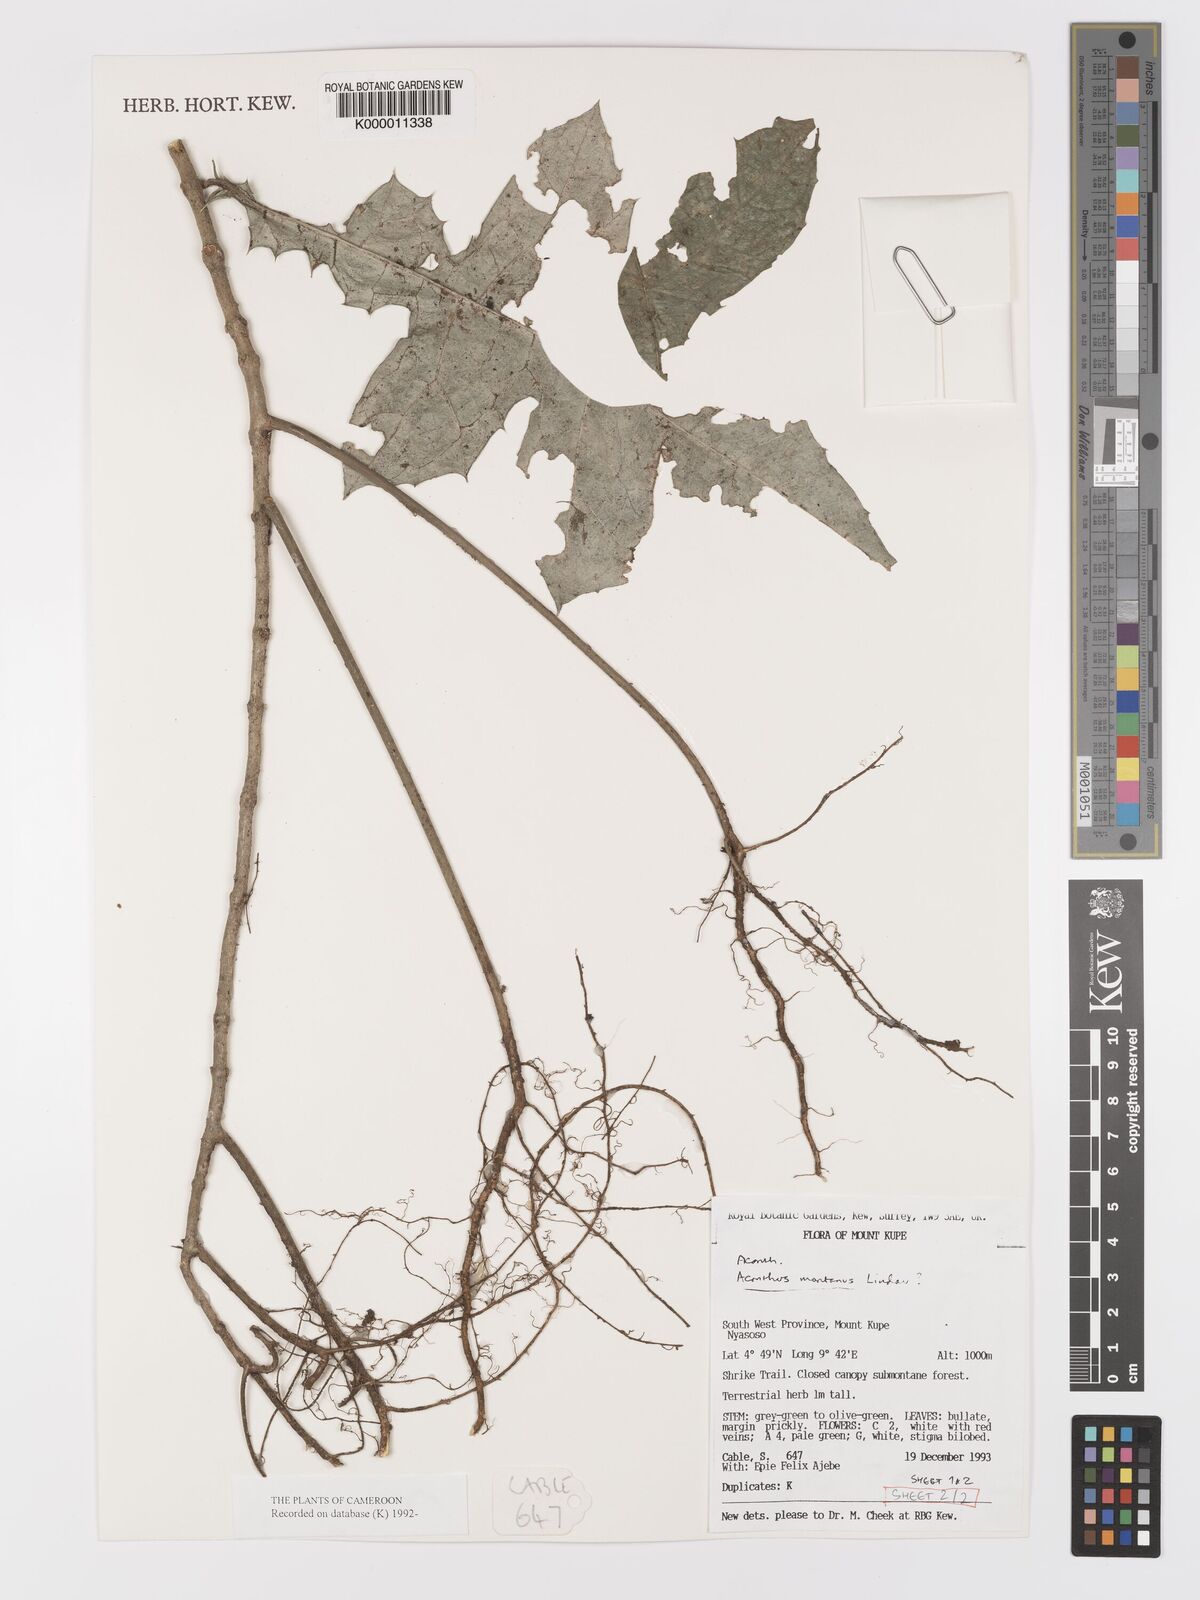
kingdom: Plantae
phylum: Tracheophyta
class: Magnoliopsida
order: Lamiales
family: Acanthaceae
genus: Acanthus
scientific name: Acanthus montanus
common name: Mountain thistle
